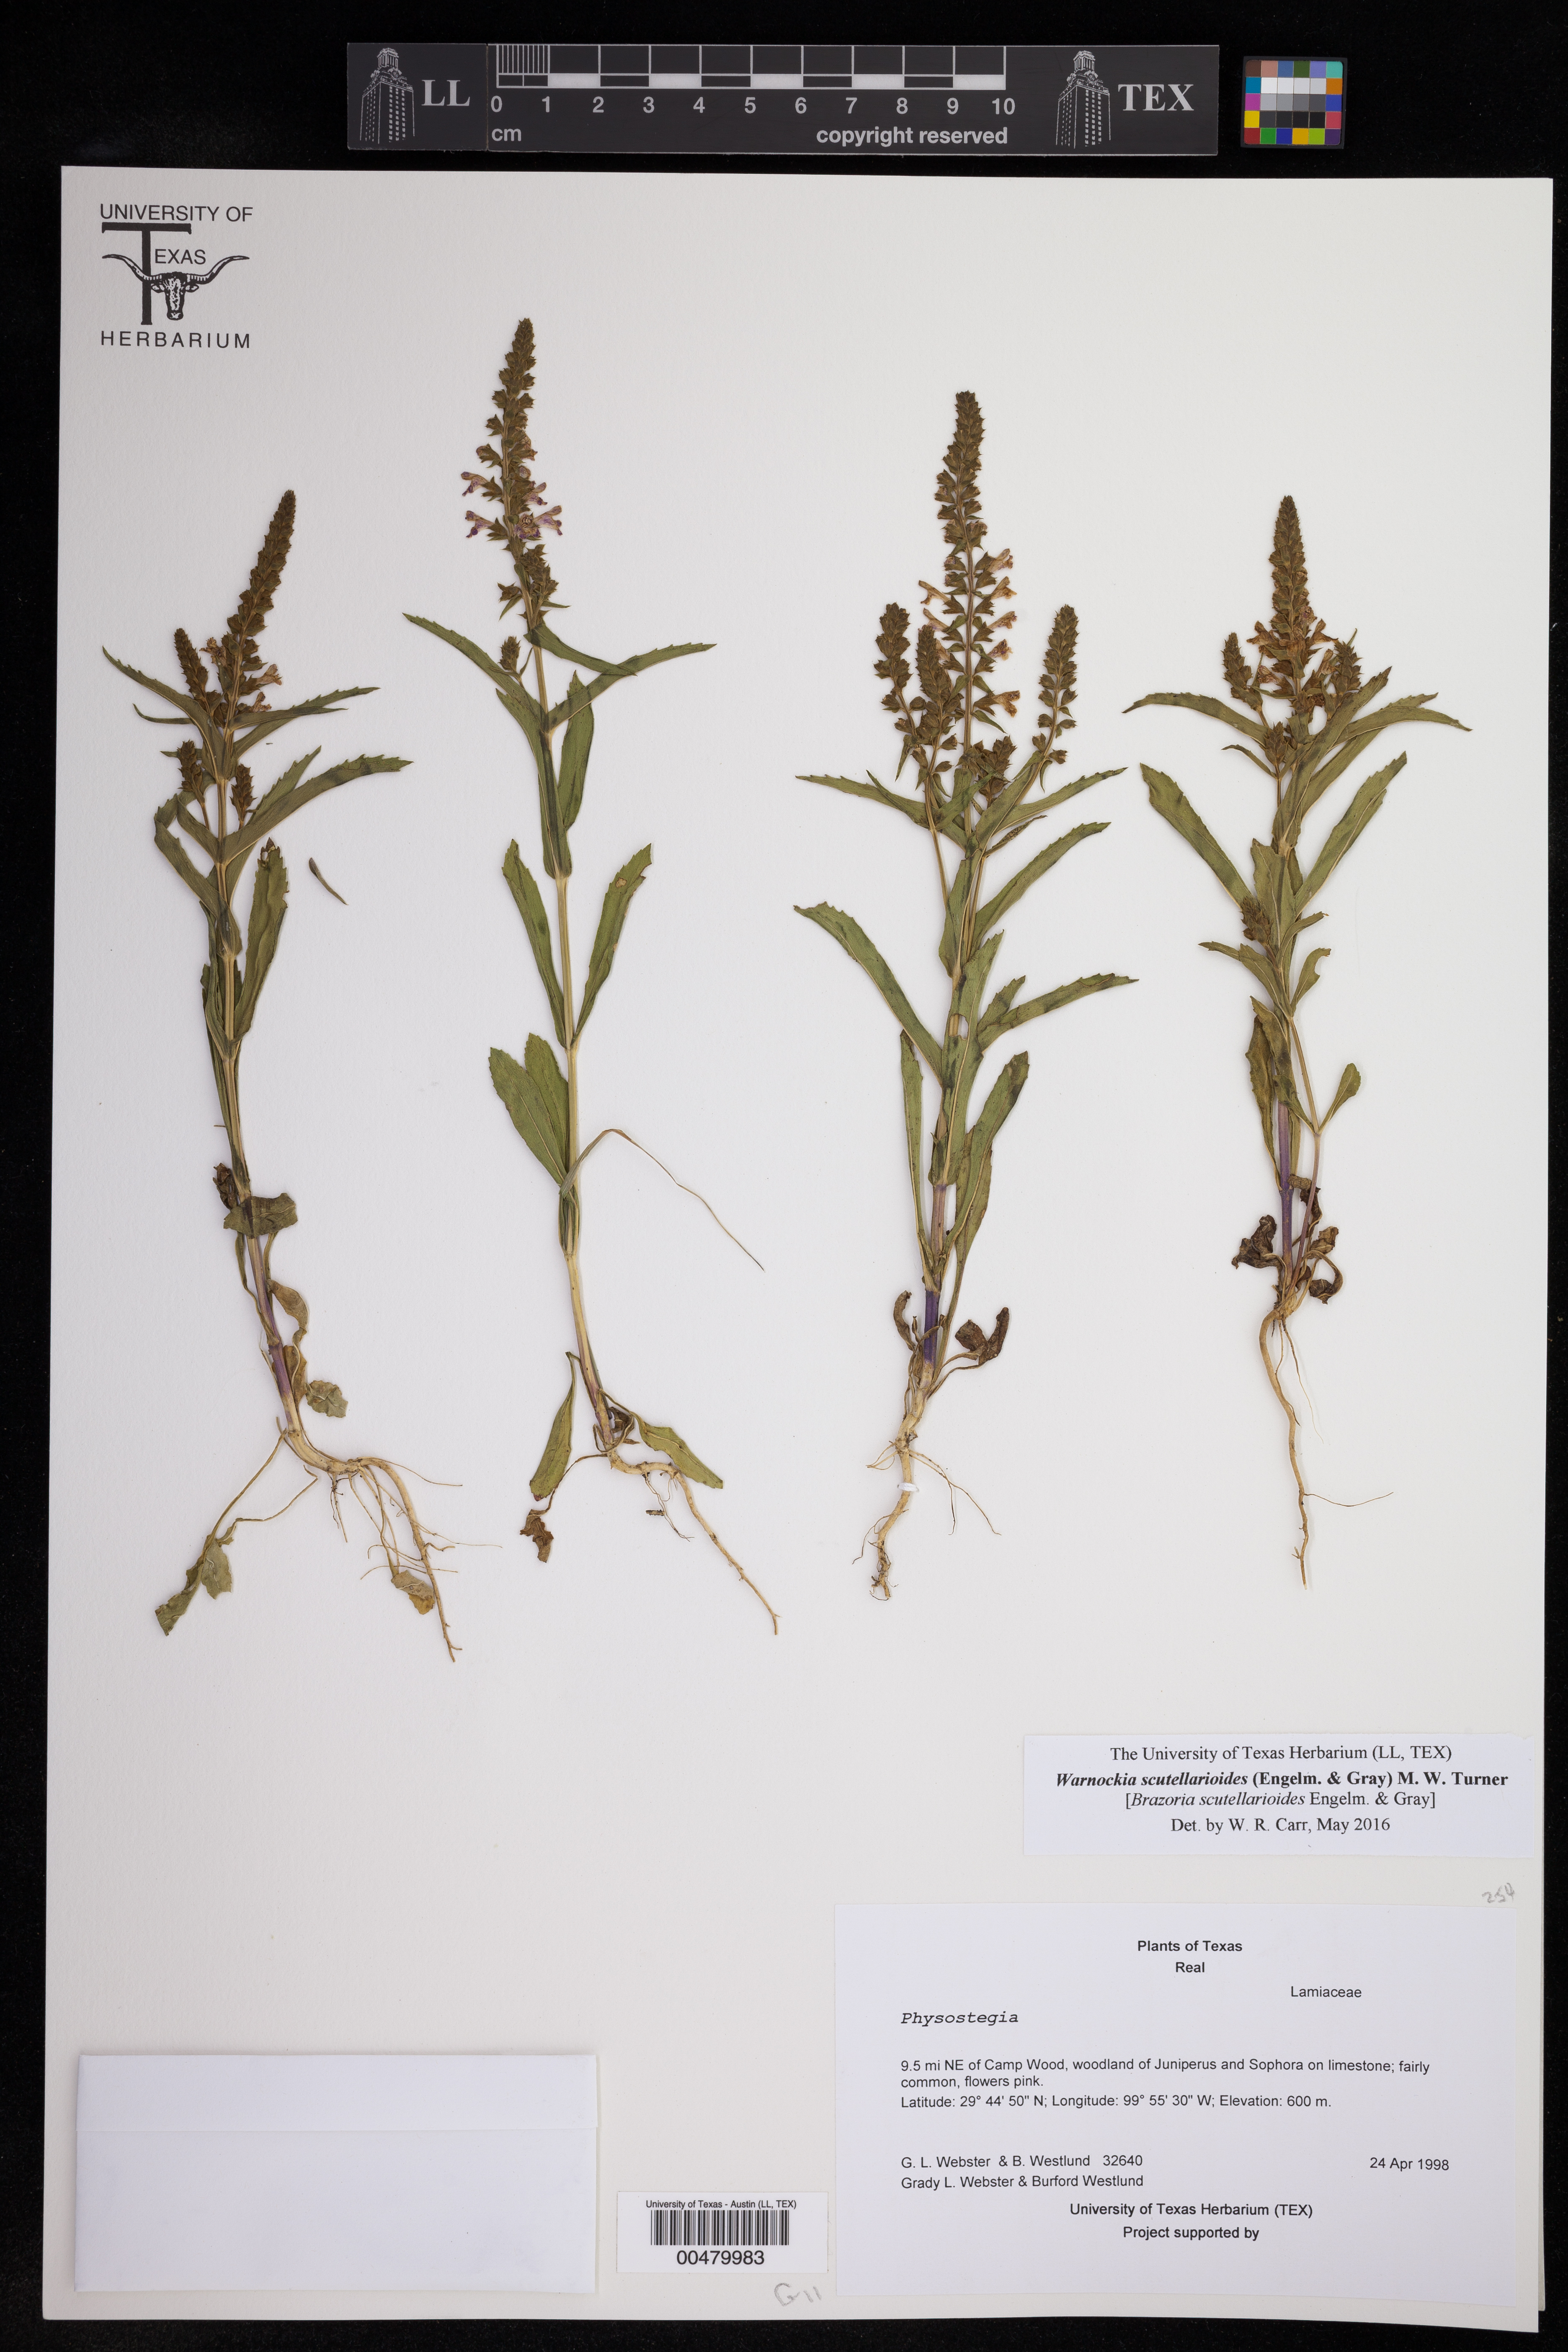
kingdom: Plantae
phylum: Tracheophyta
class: Magnoliopsida
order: Lamiales
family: Lamiaceae
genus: Warnockia
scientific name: Warnockia scutellarioides
